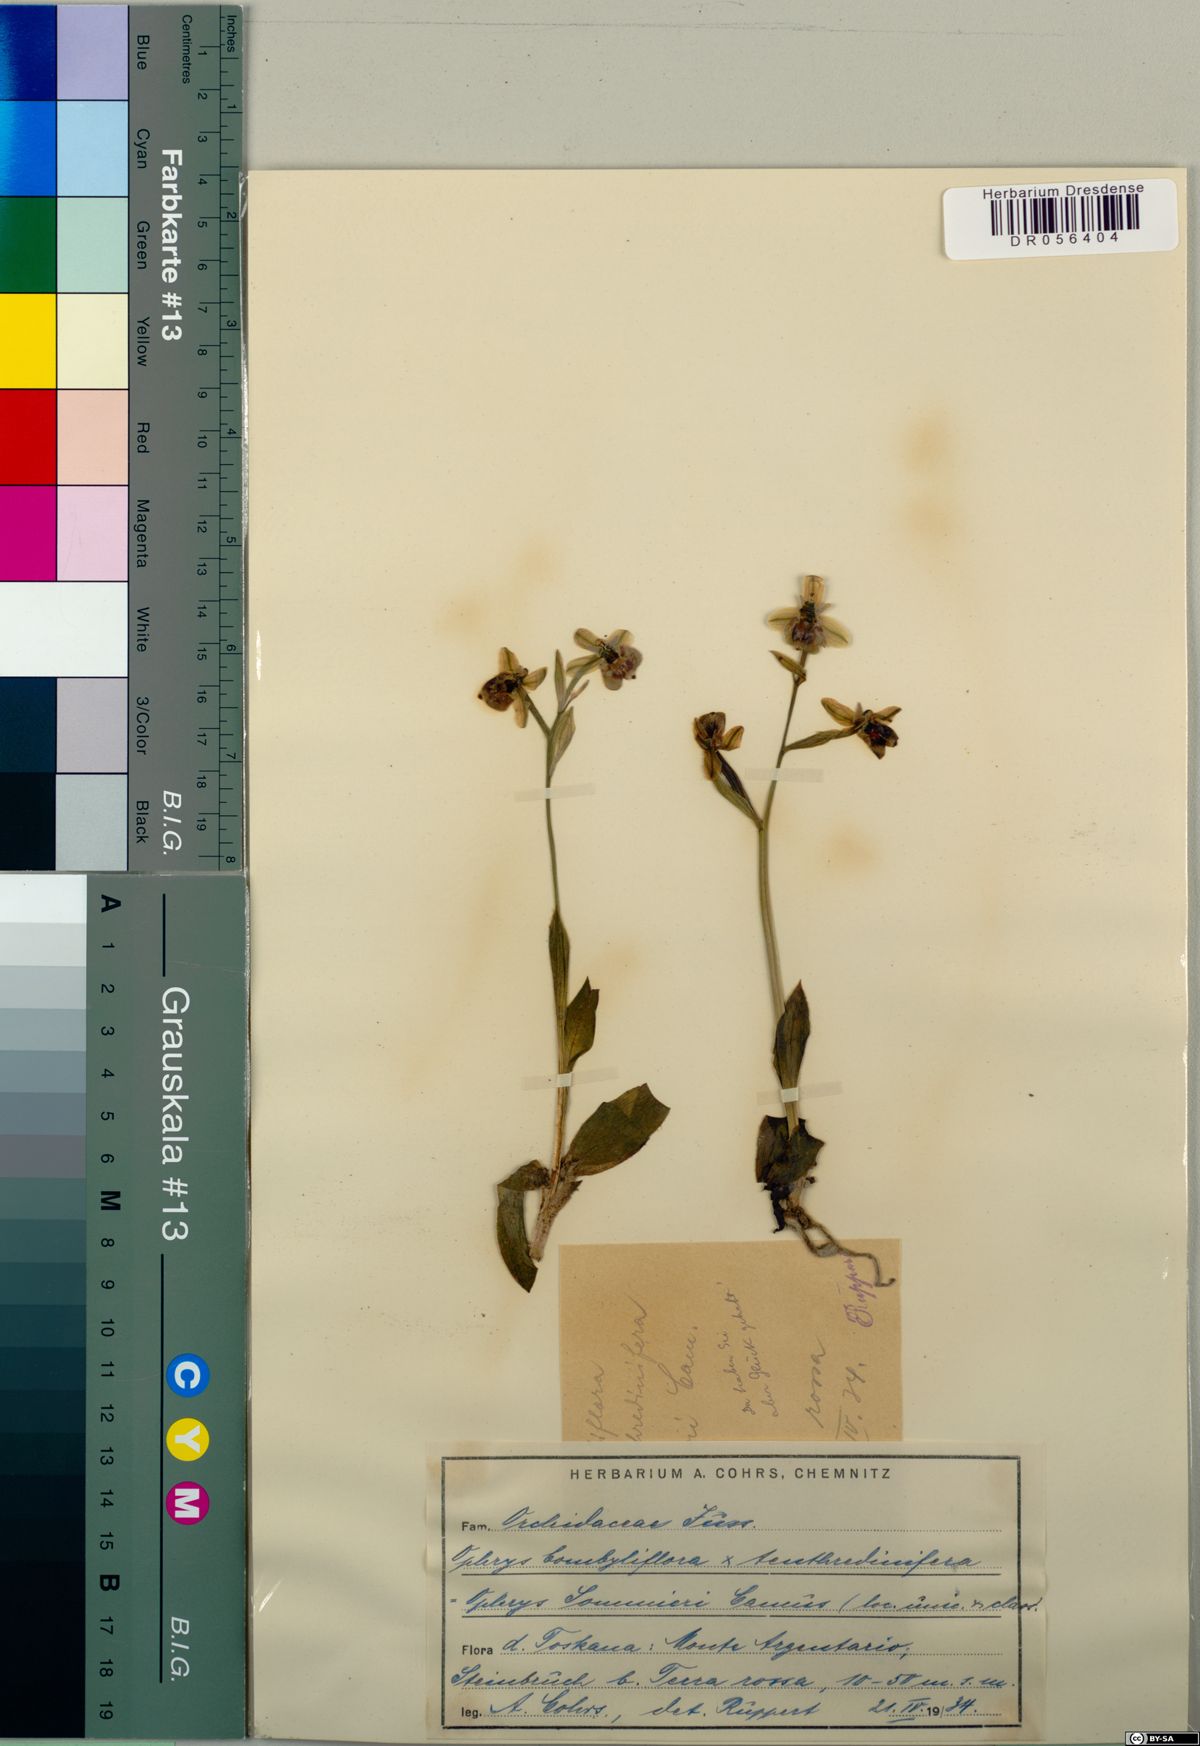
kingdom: Plantae
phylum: Tracheophyta
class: Liliopsida
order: Asparagales
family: Orchidaceae
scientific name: Orchidaceae
